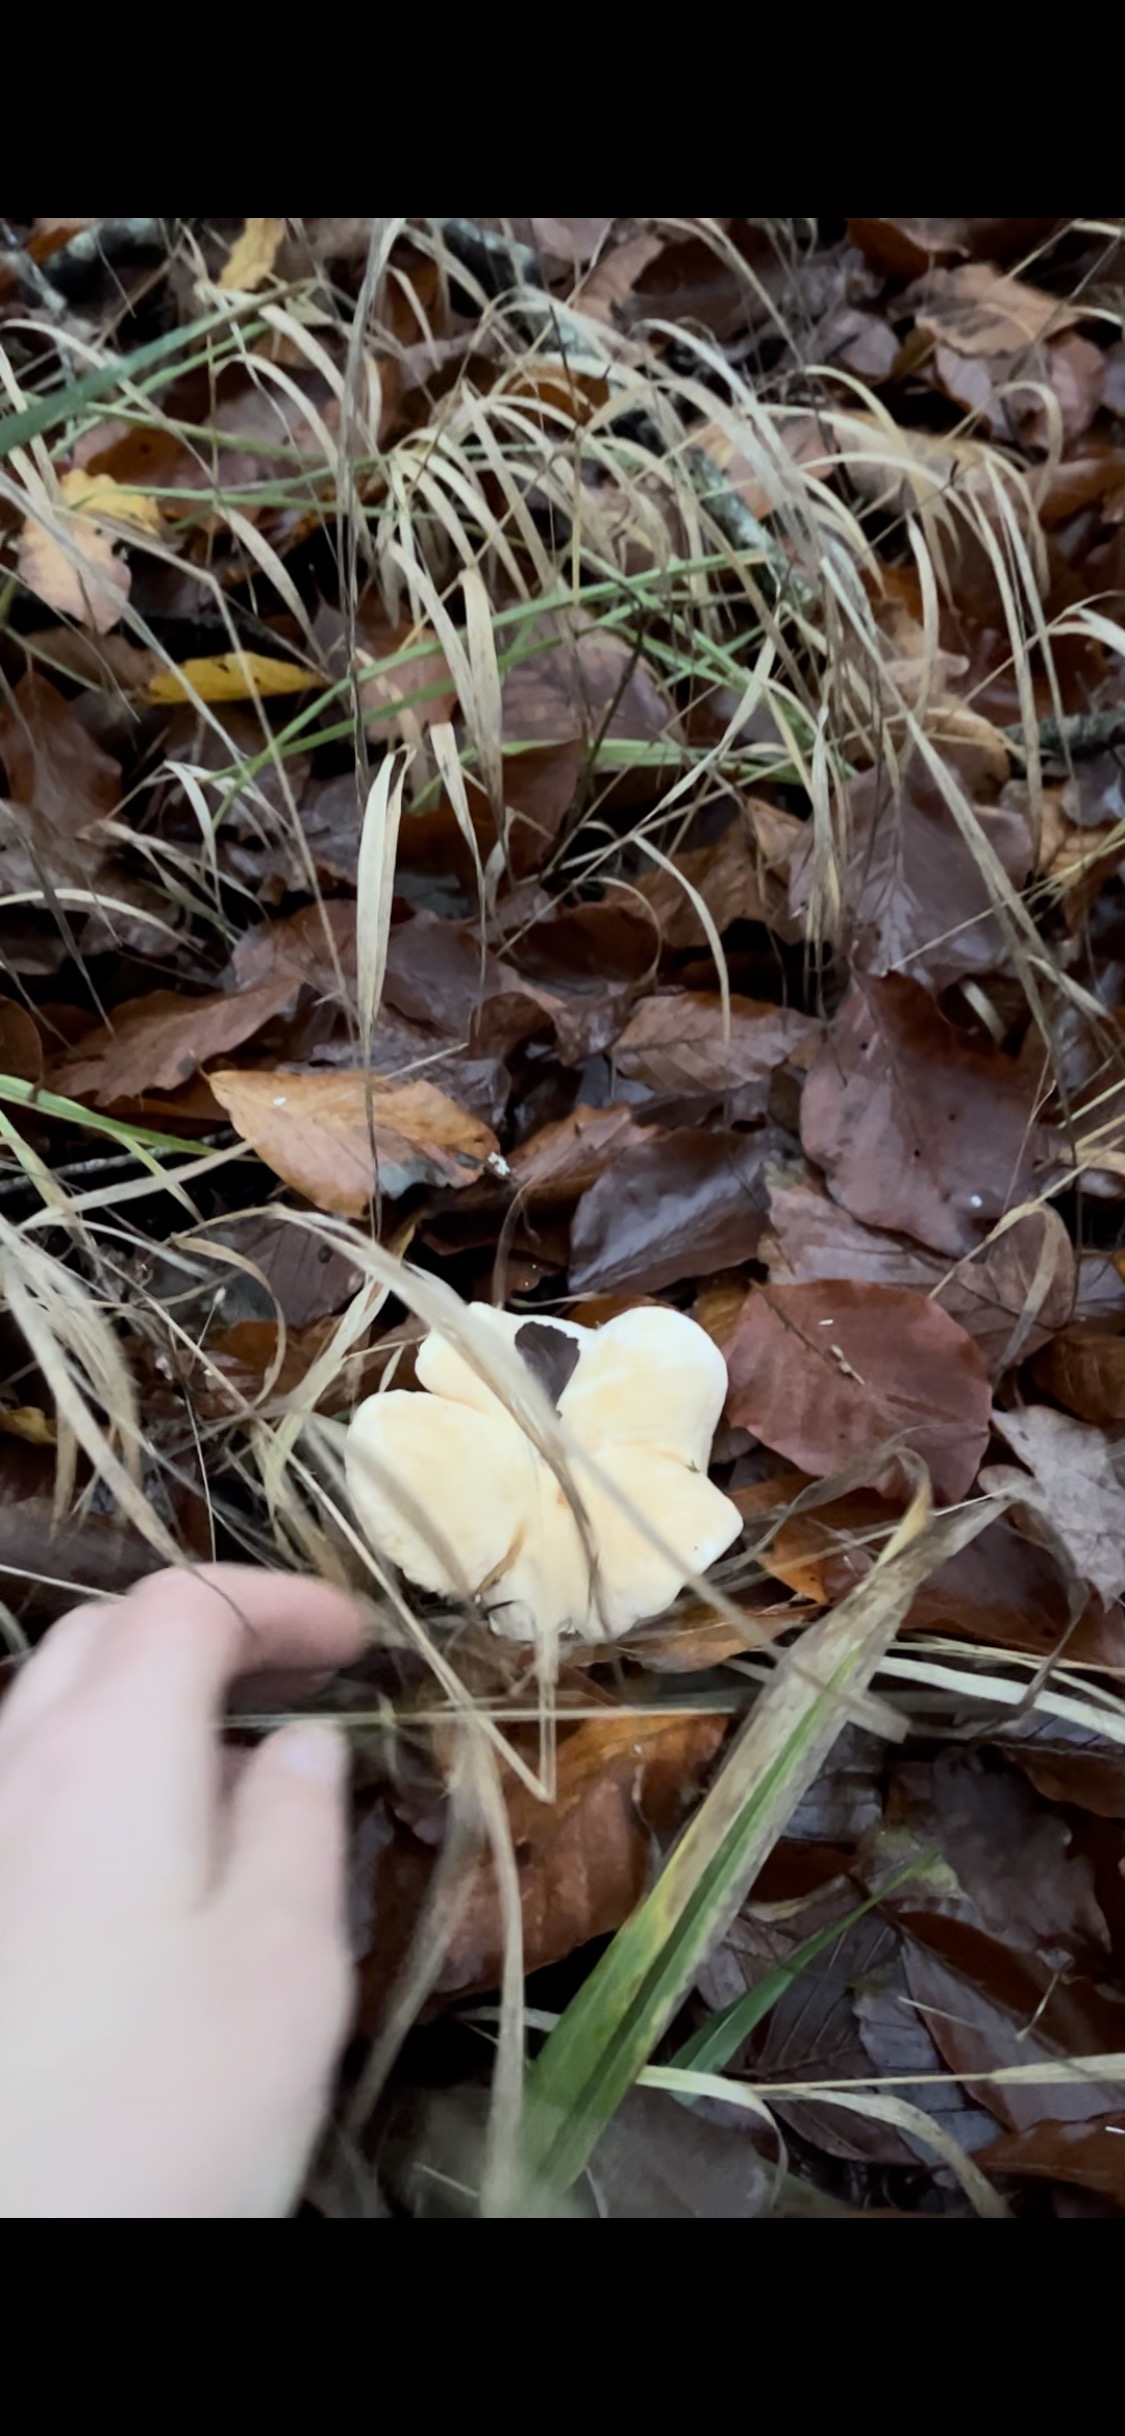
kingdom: Fungi
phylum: Basidiomycota
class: Agaricomycetes
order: Cantharellales
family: Hydnaceae
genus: Hydnum
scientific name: Hydnum repandum
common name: almindelig pigsvamp
